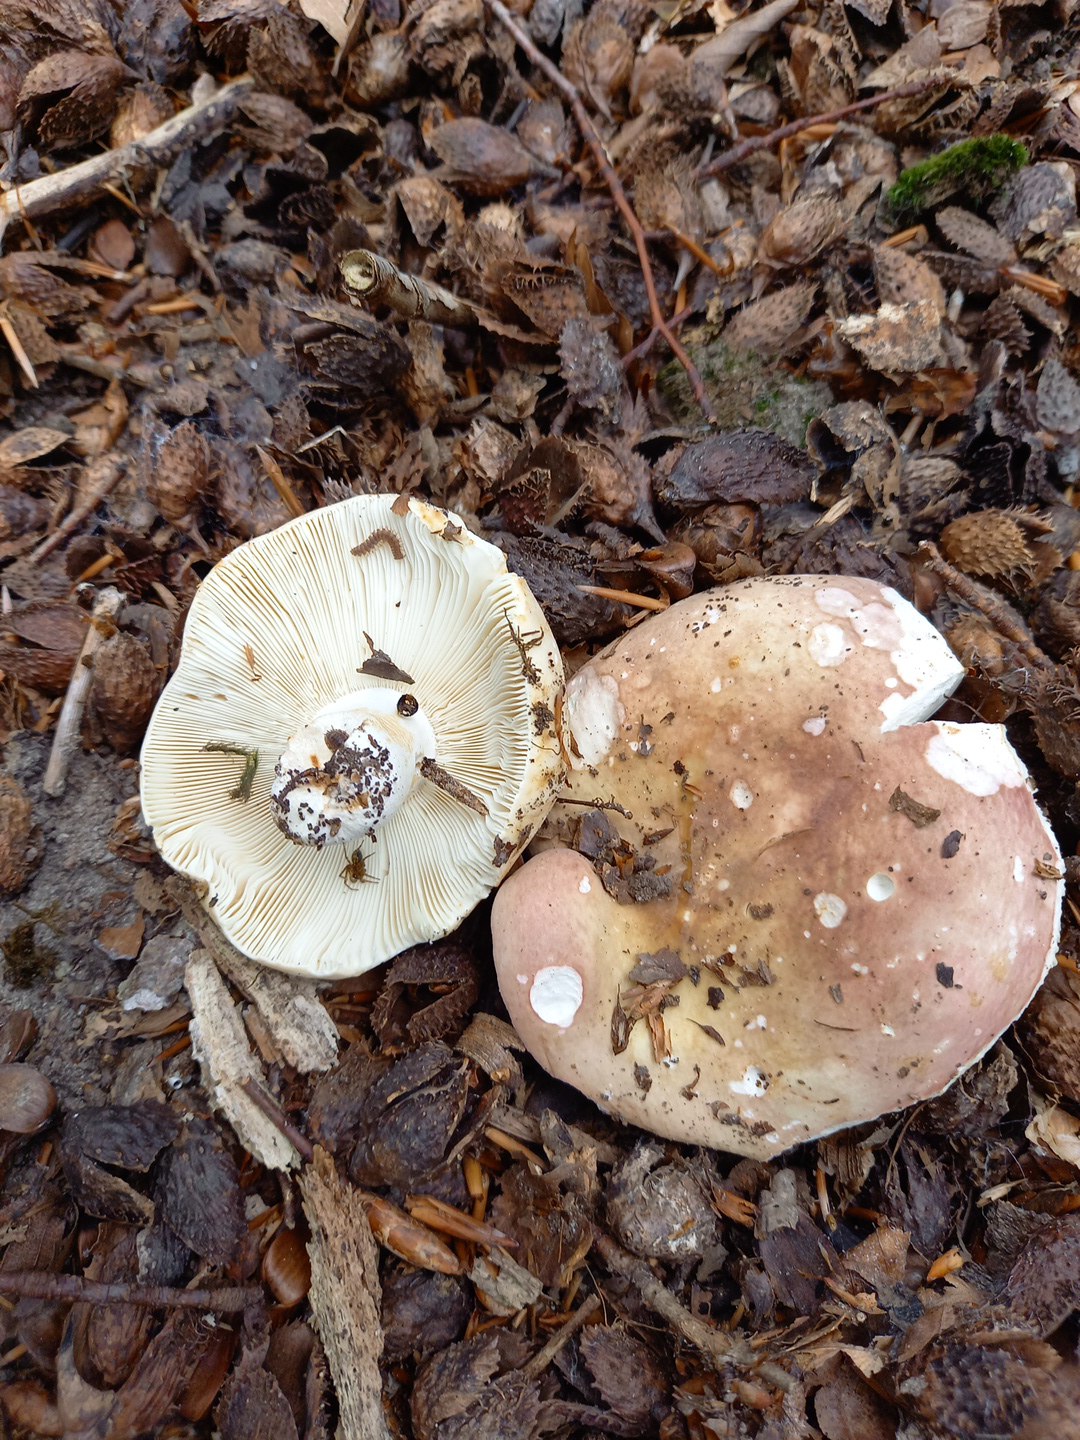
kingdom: Fungi
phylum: Basidiomycota
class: Agaricomycetes
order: Russulales
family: Russulaceae
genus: Russula
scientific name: Russula
